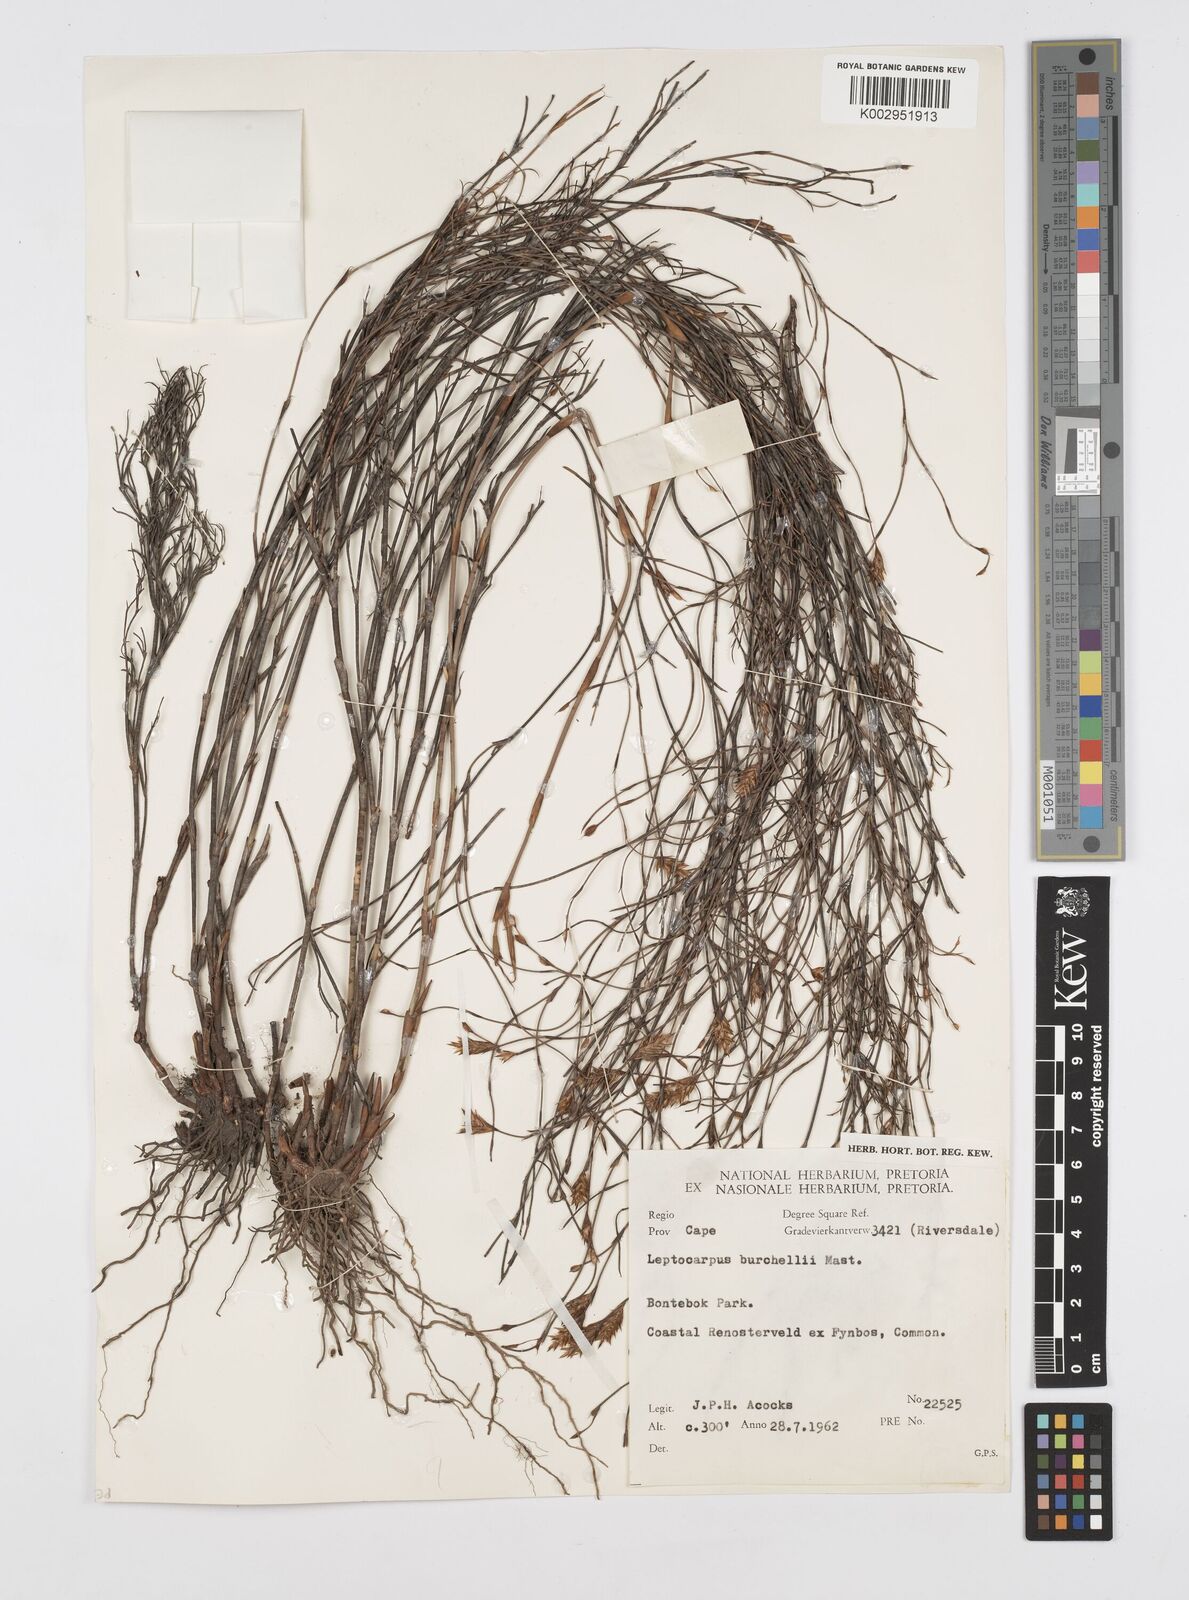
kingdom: Plantae
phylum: Tracheophyta
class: Liliopsida
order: Poales
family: Restionaceae
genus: Restio
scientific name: Restio burchellii
